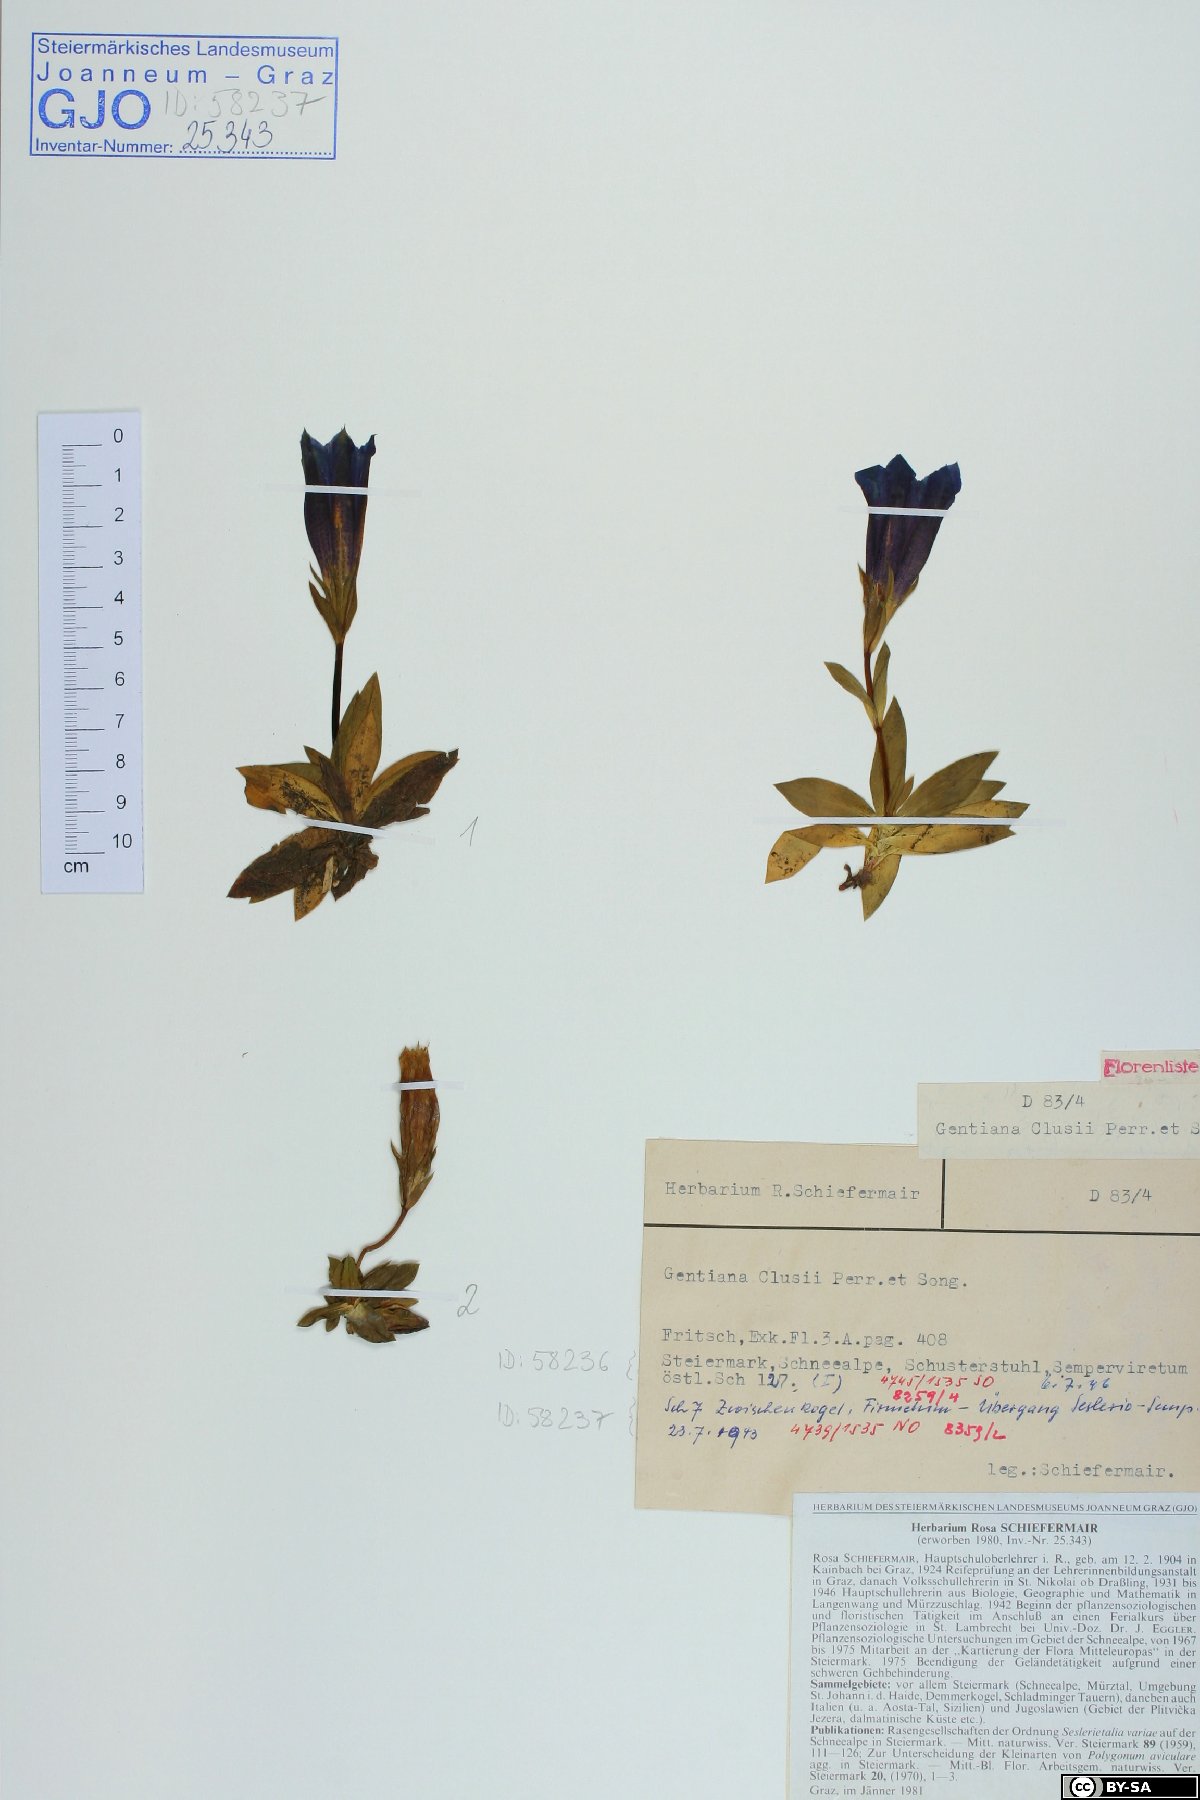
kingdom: Plantae
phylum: Tracheophyta
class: Magnoliopsida
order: Gentianales
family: Gentianaceae
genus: Gentiana
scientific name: Gentiana clusii
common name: Trumpet gentian
